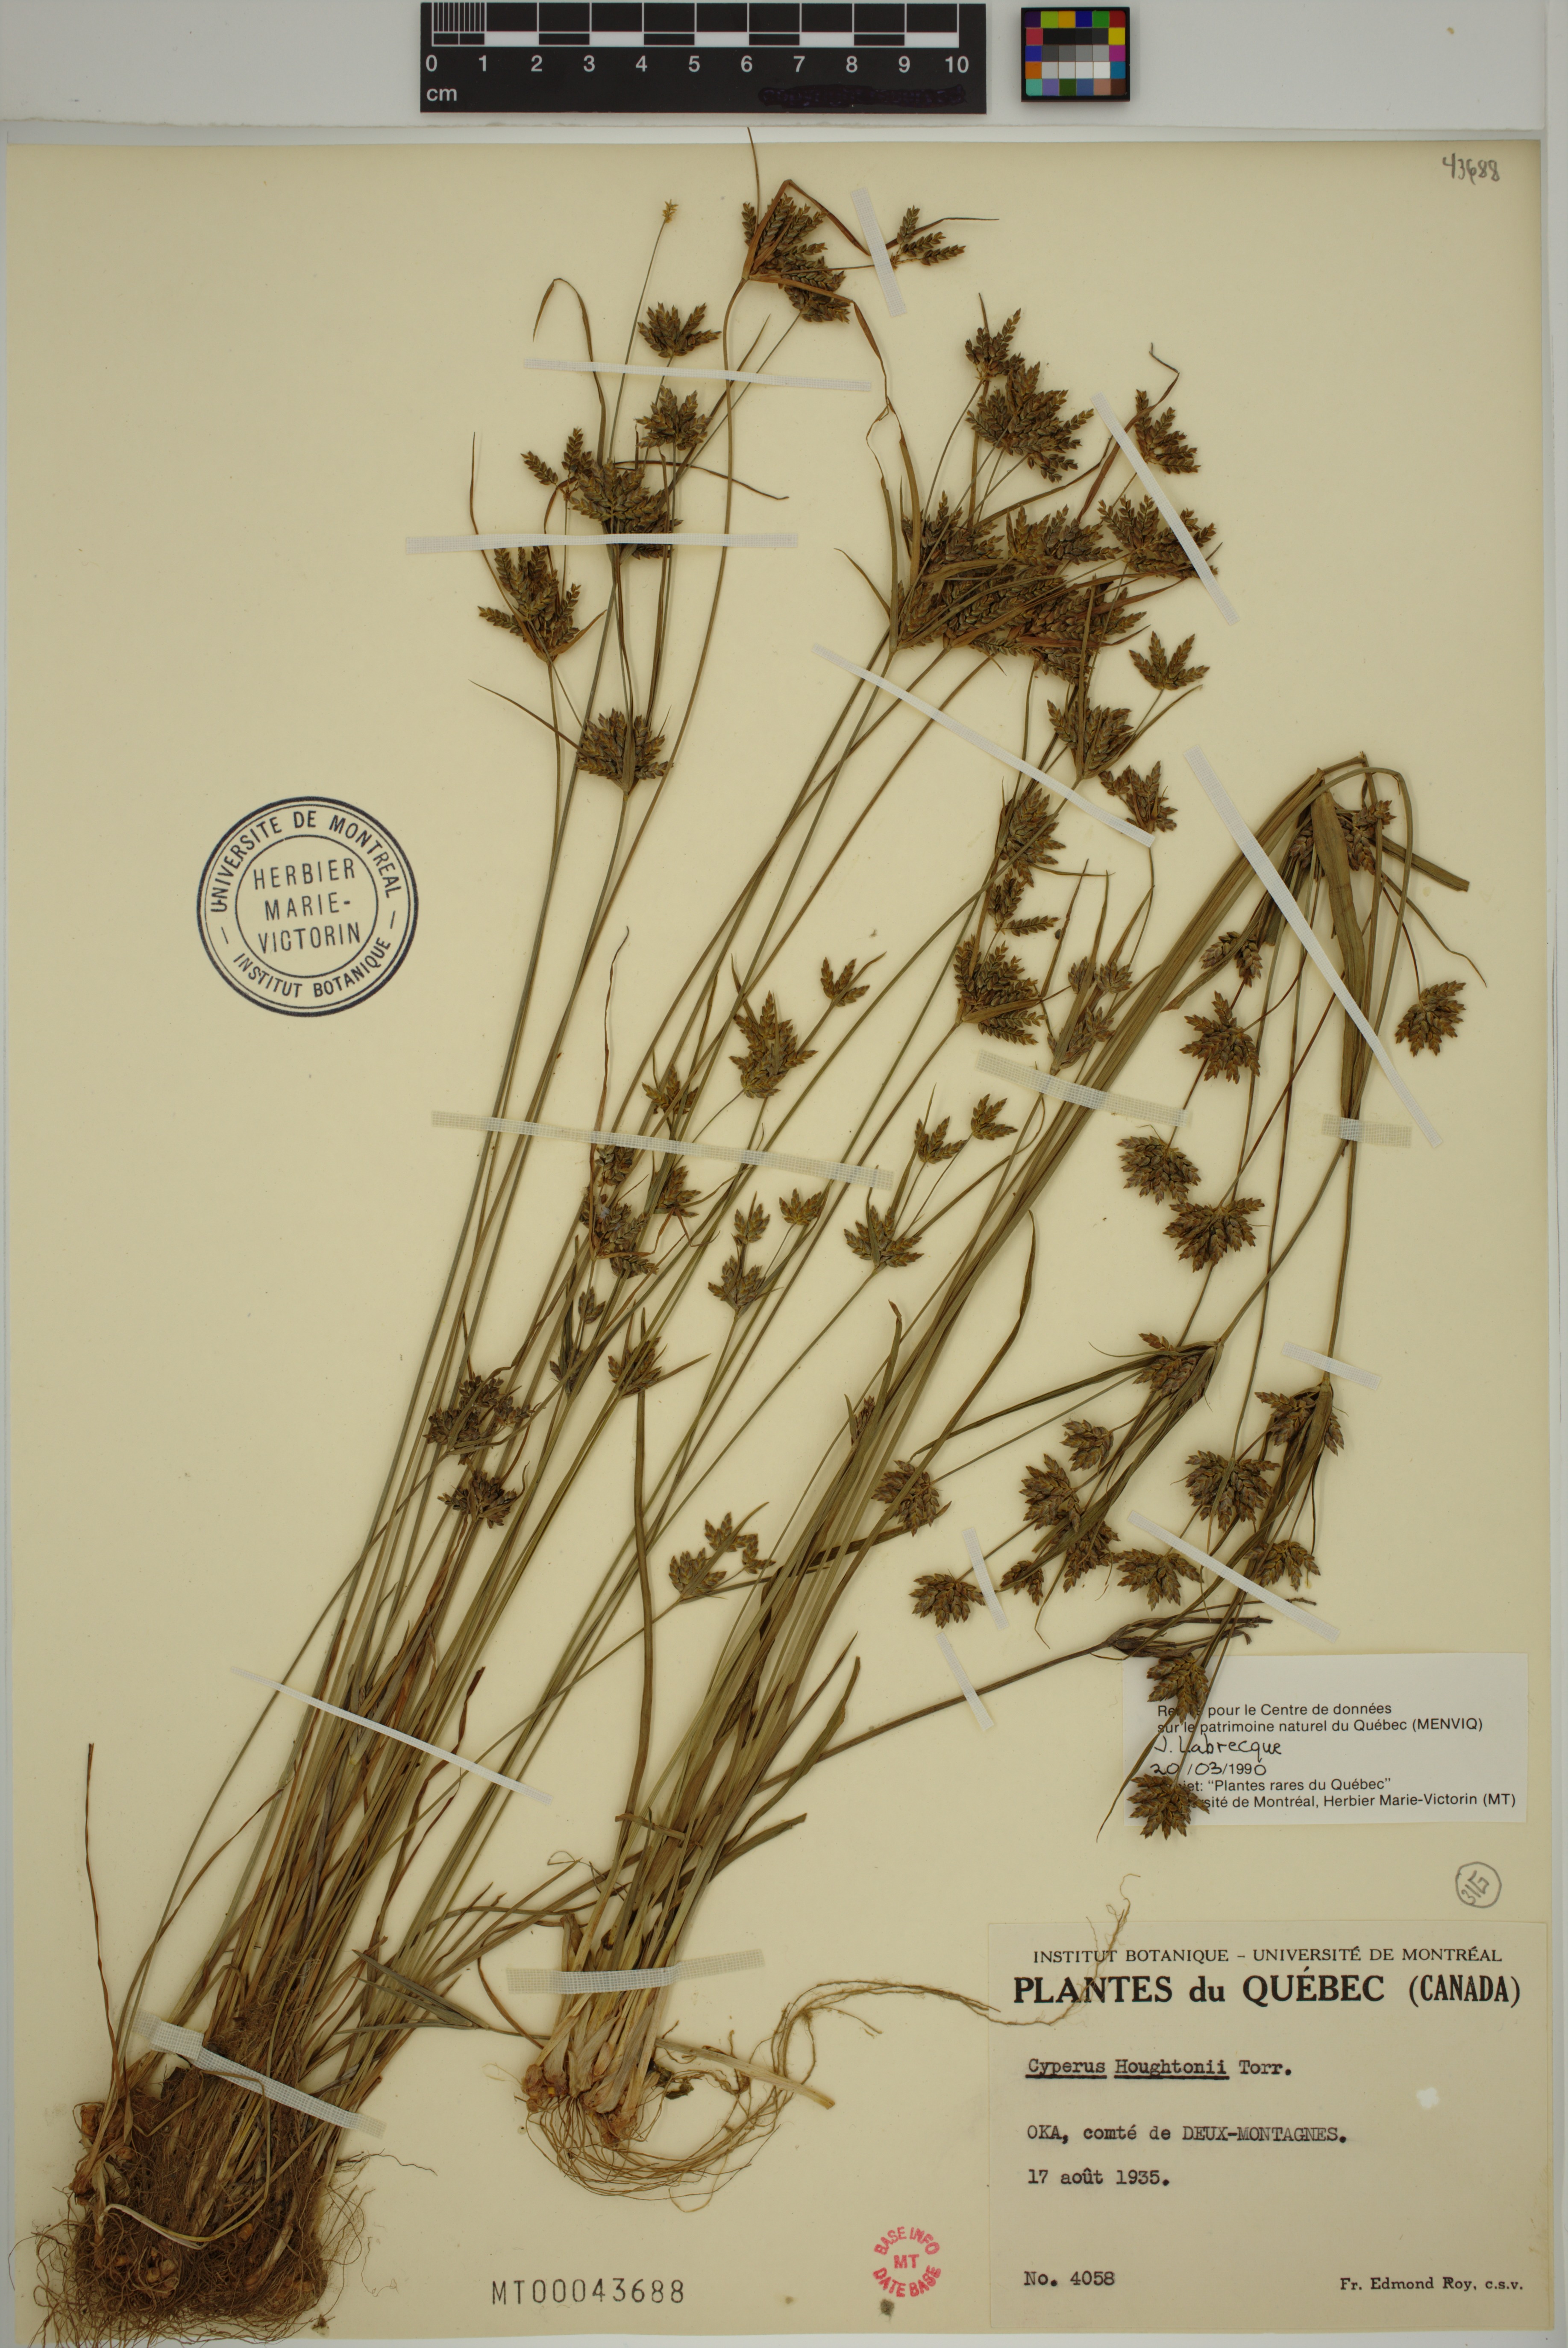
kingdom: Plantae
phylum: Tracheophyta
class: Liliopsida
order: Poales
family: Cyperaceae
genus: Cyperus
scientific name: Cyperus houghtonii
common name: Houghton's cyperus
